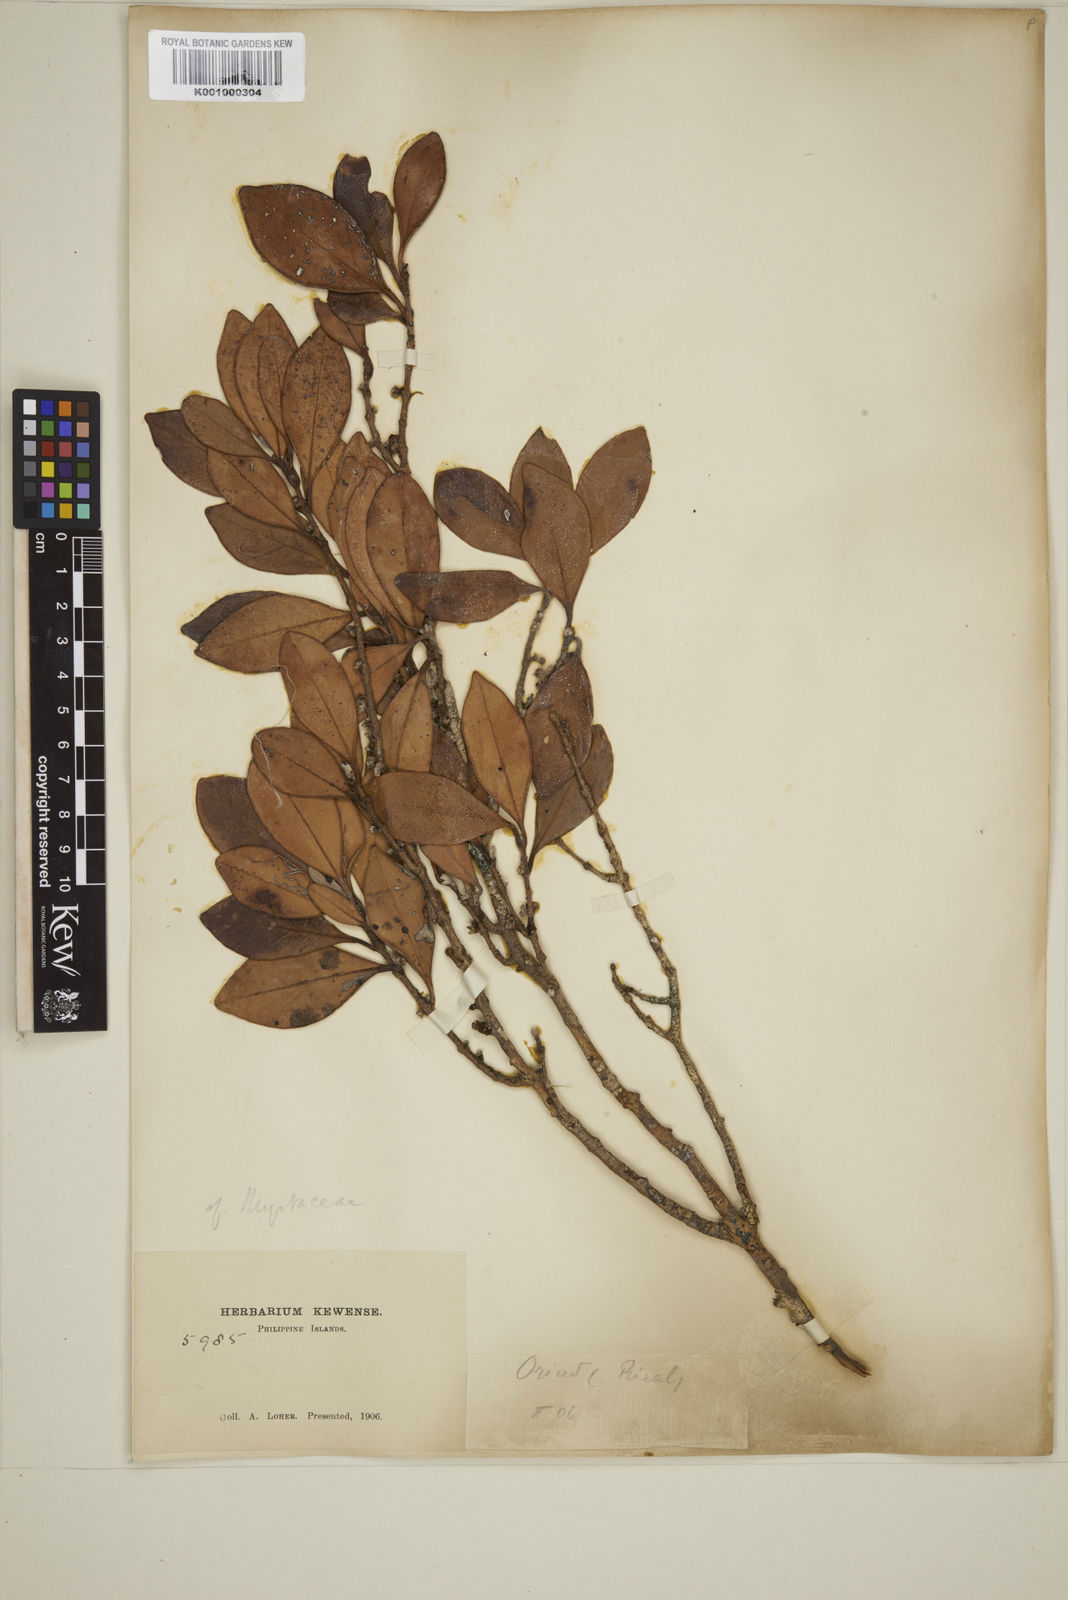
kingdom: Plantae
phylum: Tracheophyta
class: Magnoliopsida
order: Myrtales
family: Myrtaceae
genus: Eugenia
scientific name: Eugenia tulanan
